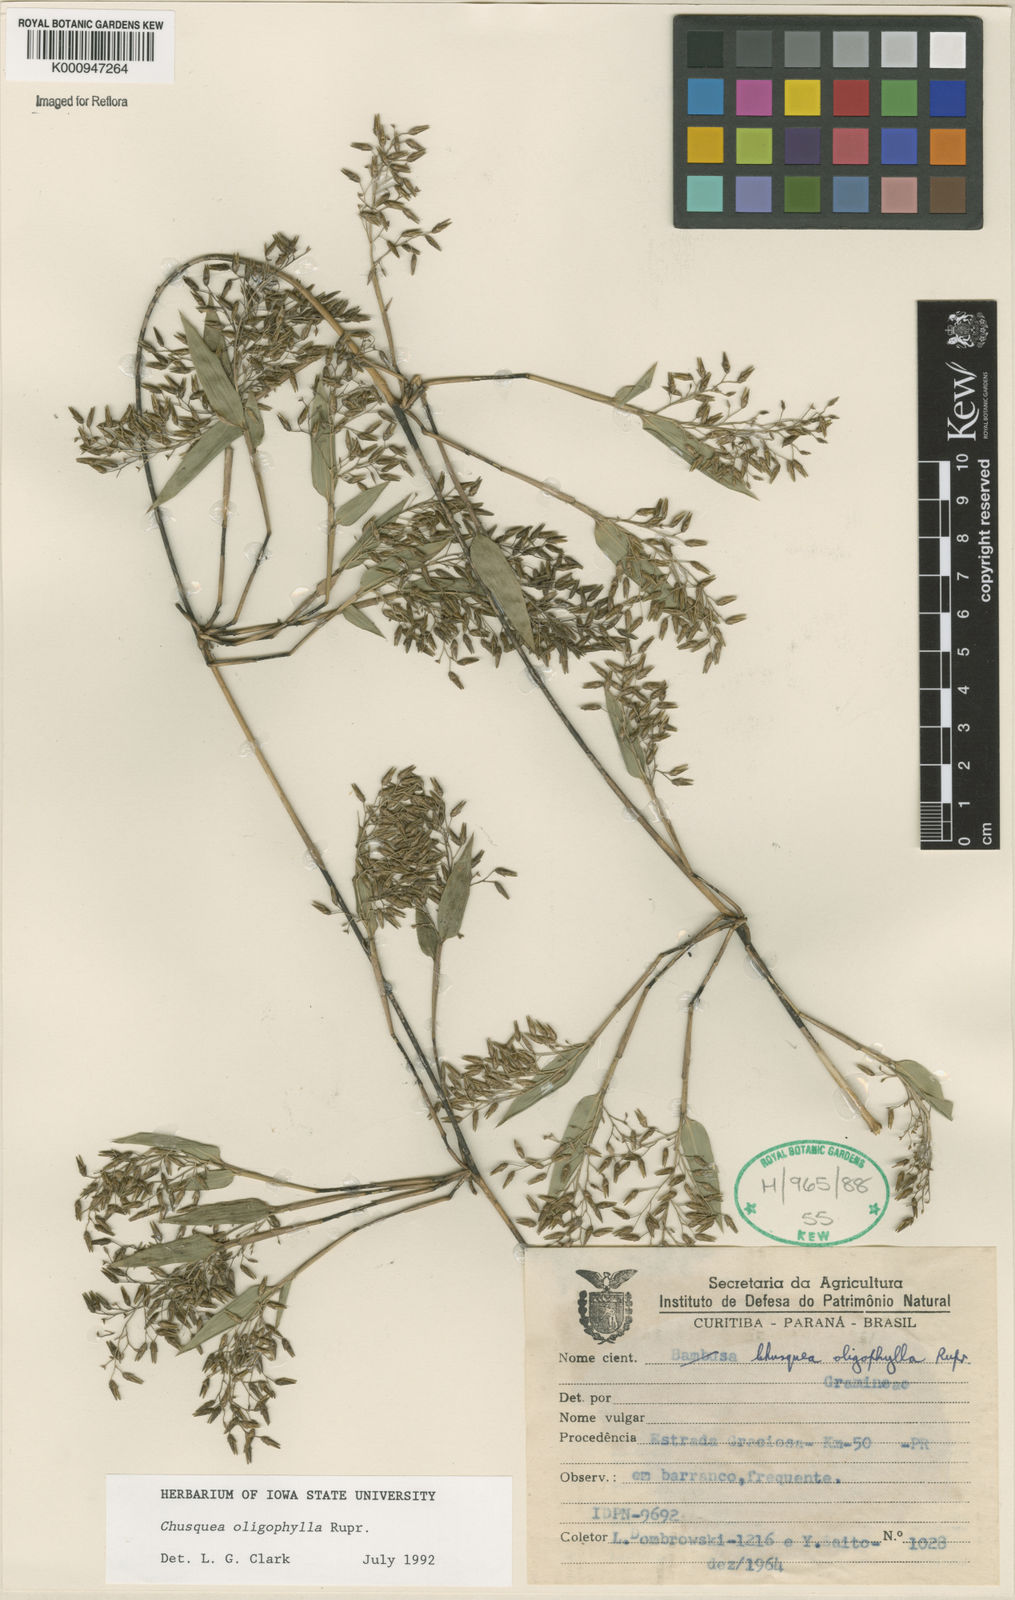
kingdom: Plantae
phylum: Tracheophyta
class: Liliopsida
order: Poales
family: Poaceae
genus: Chusquea
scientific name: Chusquea oligophylla
